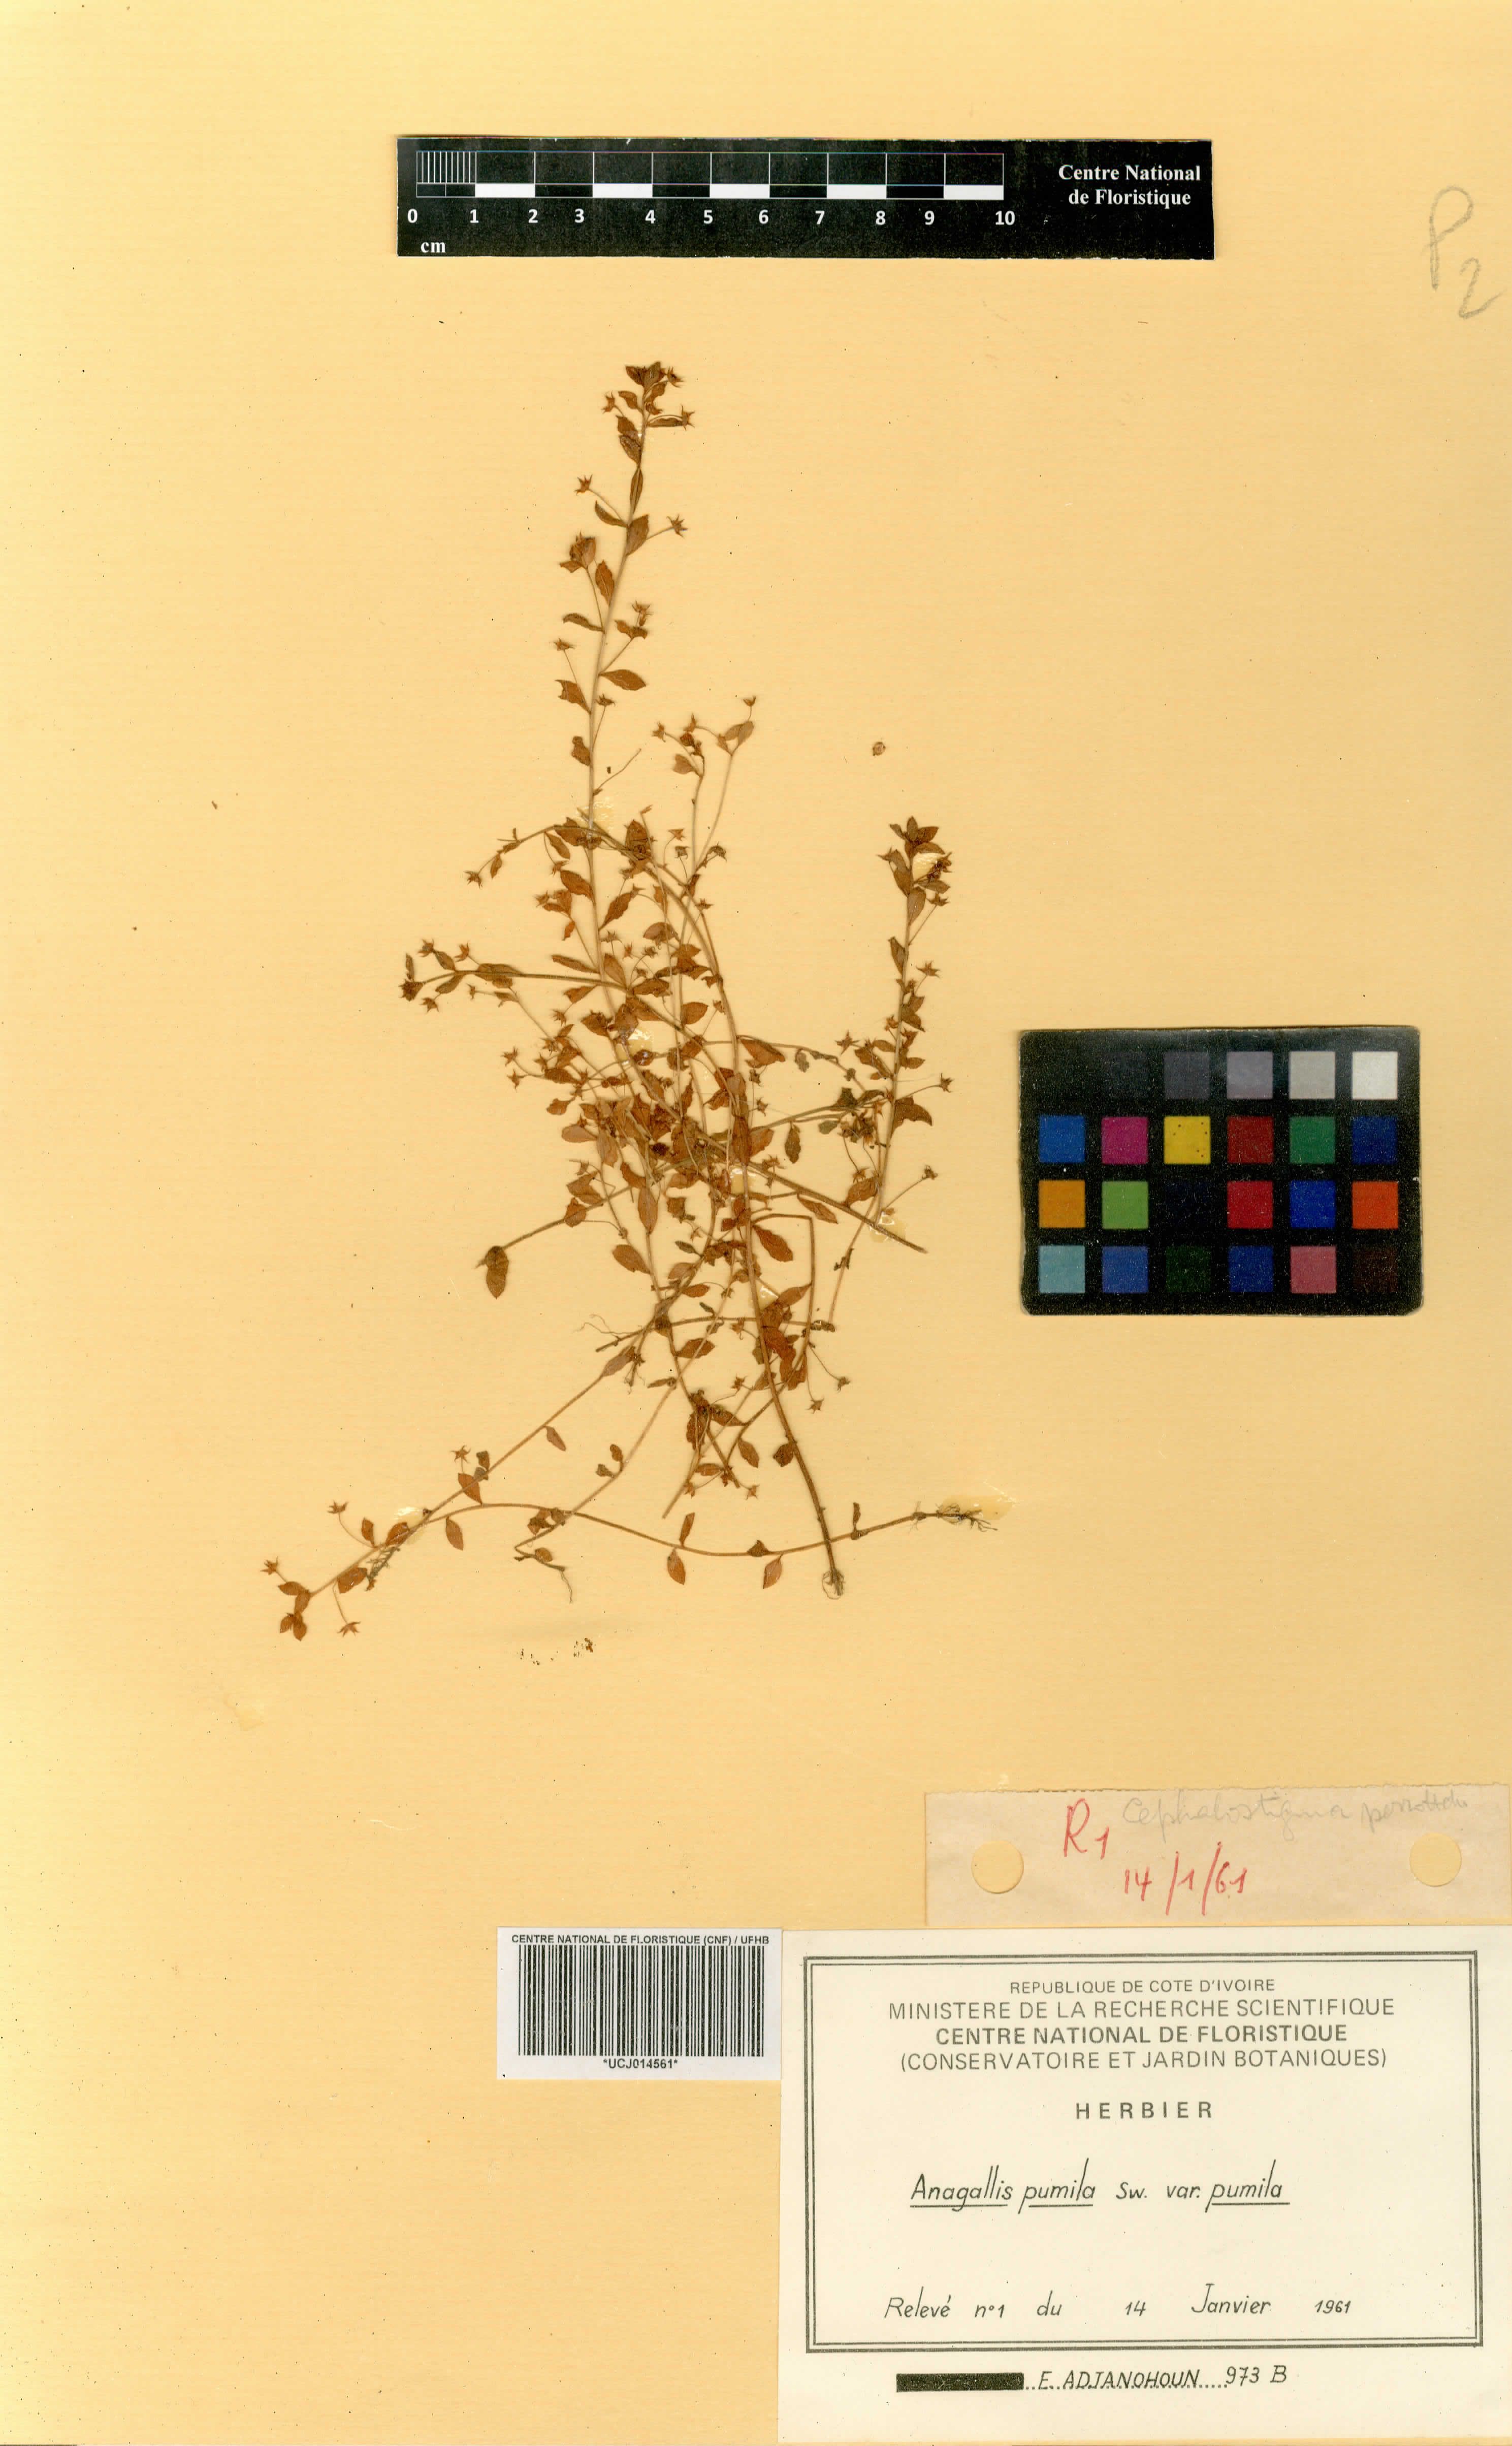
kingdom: Plantae
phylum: Tracheophyta
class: Magnoliopsida
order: Ericales
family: Primulaceae
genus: Lysimachia
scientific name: Lysimachia ovalis
